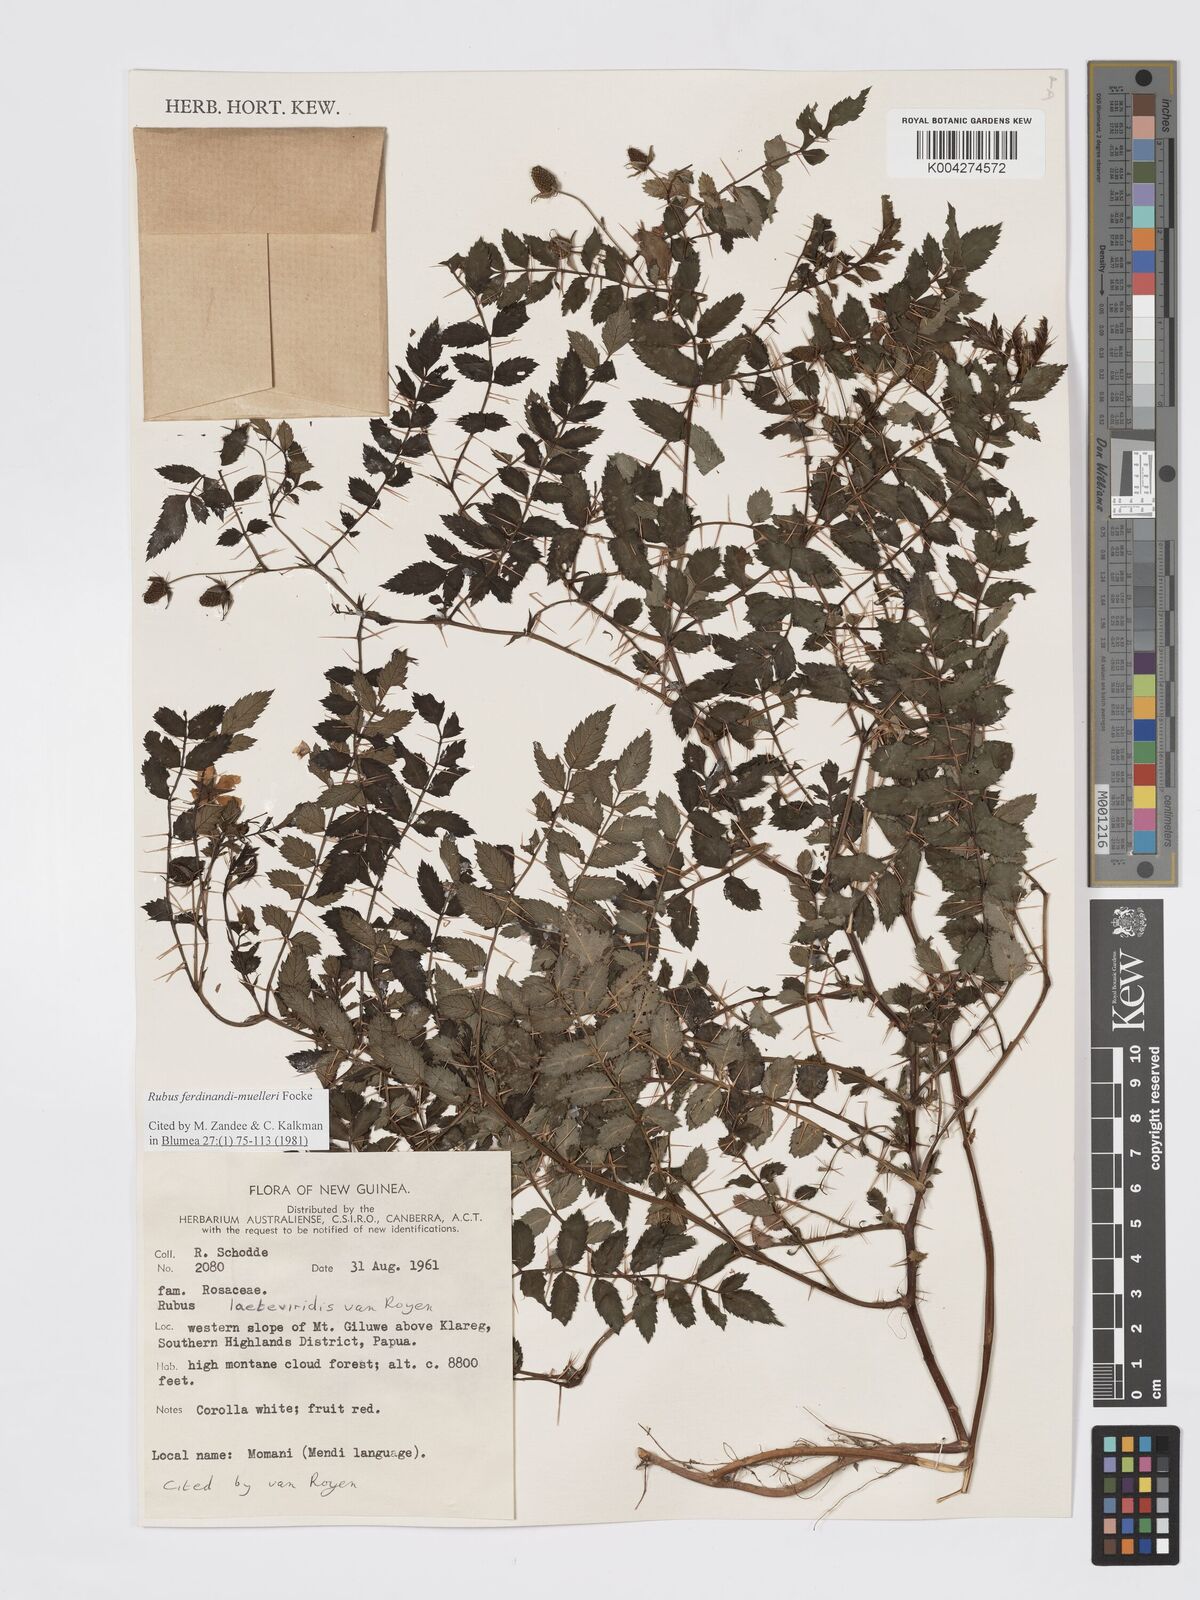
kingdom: Plantae
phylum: Tracheophyta
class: Magnoliopsida
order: Rosales
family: Rosaceae
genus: Rubus
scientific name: Rubus ferdinandimuelleri
